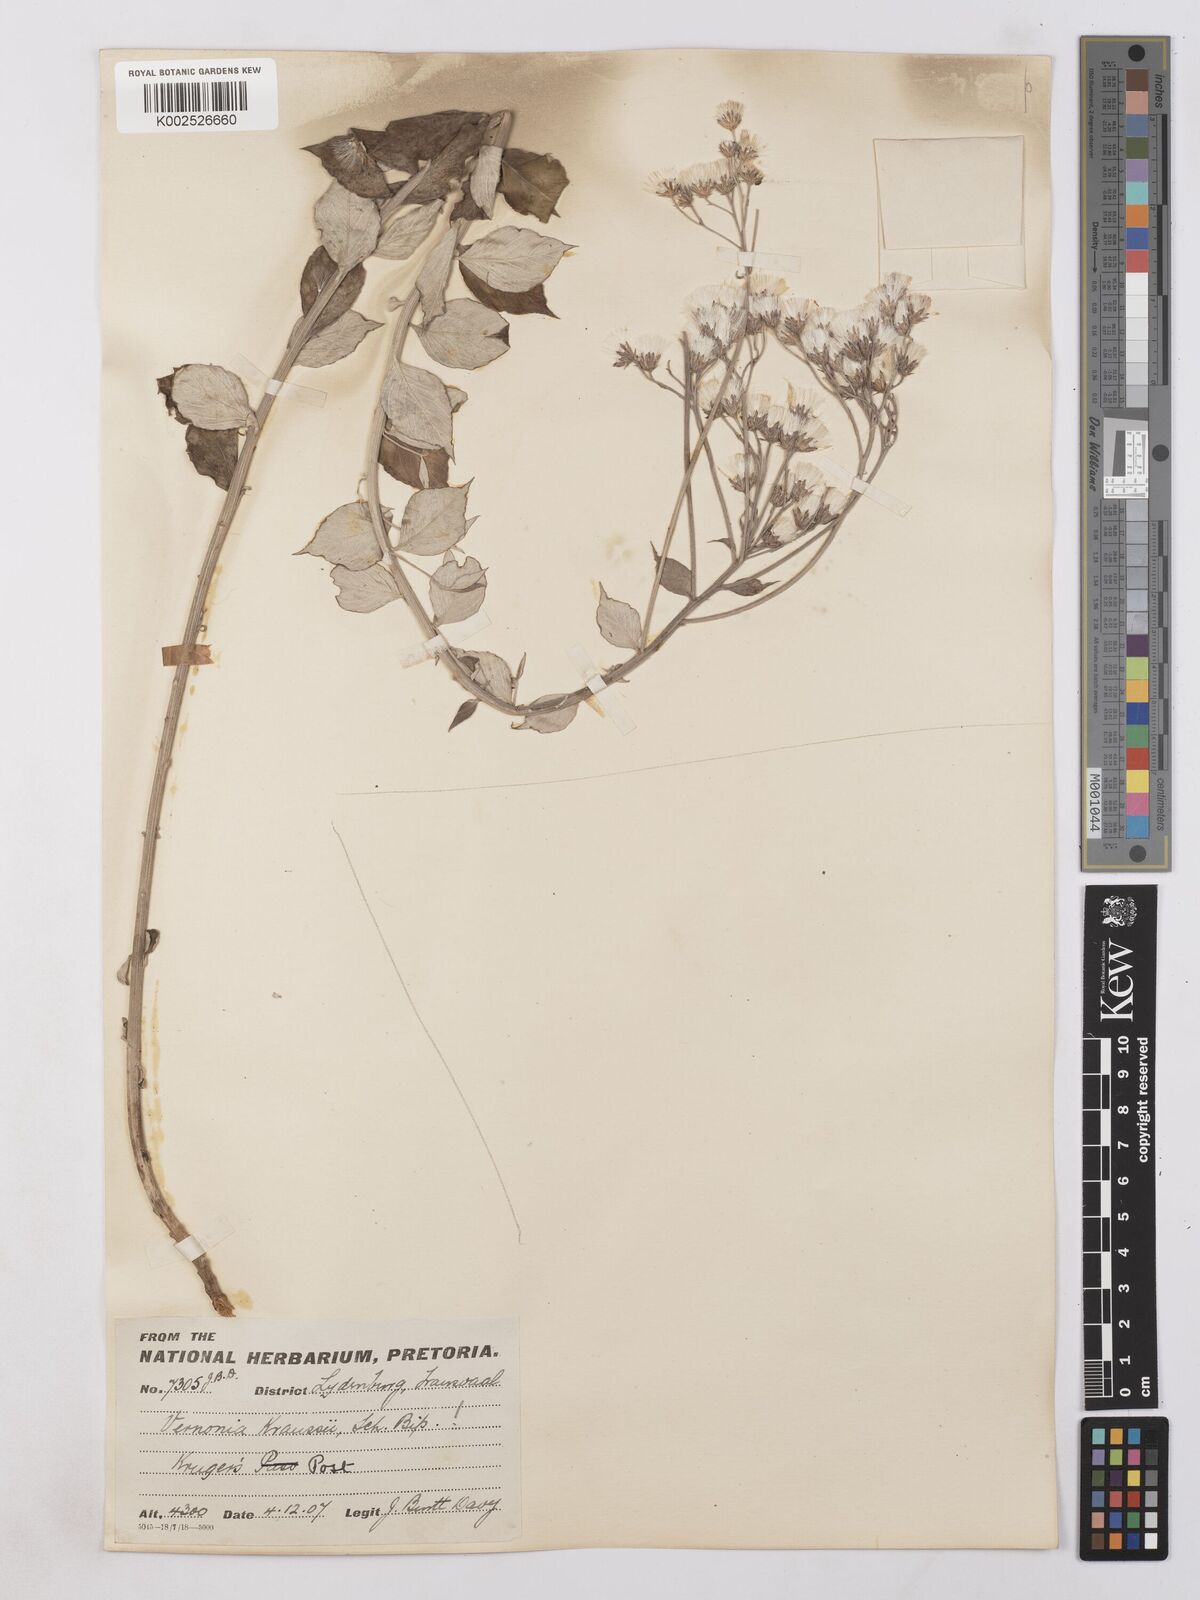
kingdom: Plantae
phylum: Tracheophyta
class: Magnoliopsida
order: Asterales
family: Asteraceae
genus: Hilliardiella
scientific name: Hilliardiella oligocephala
